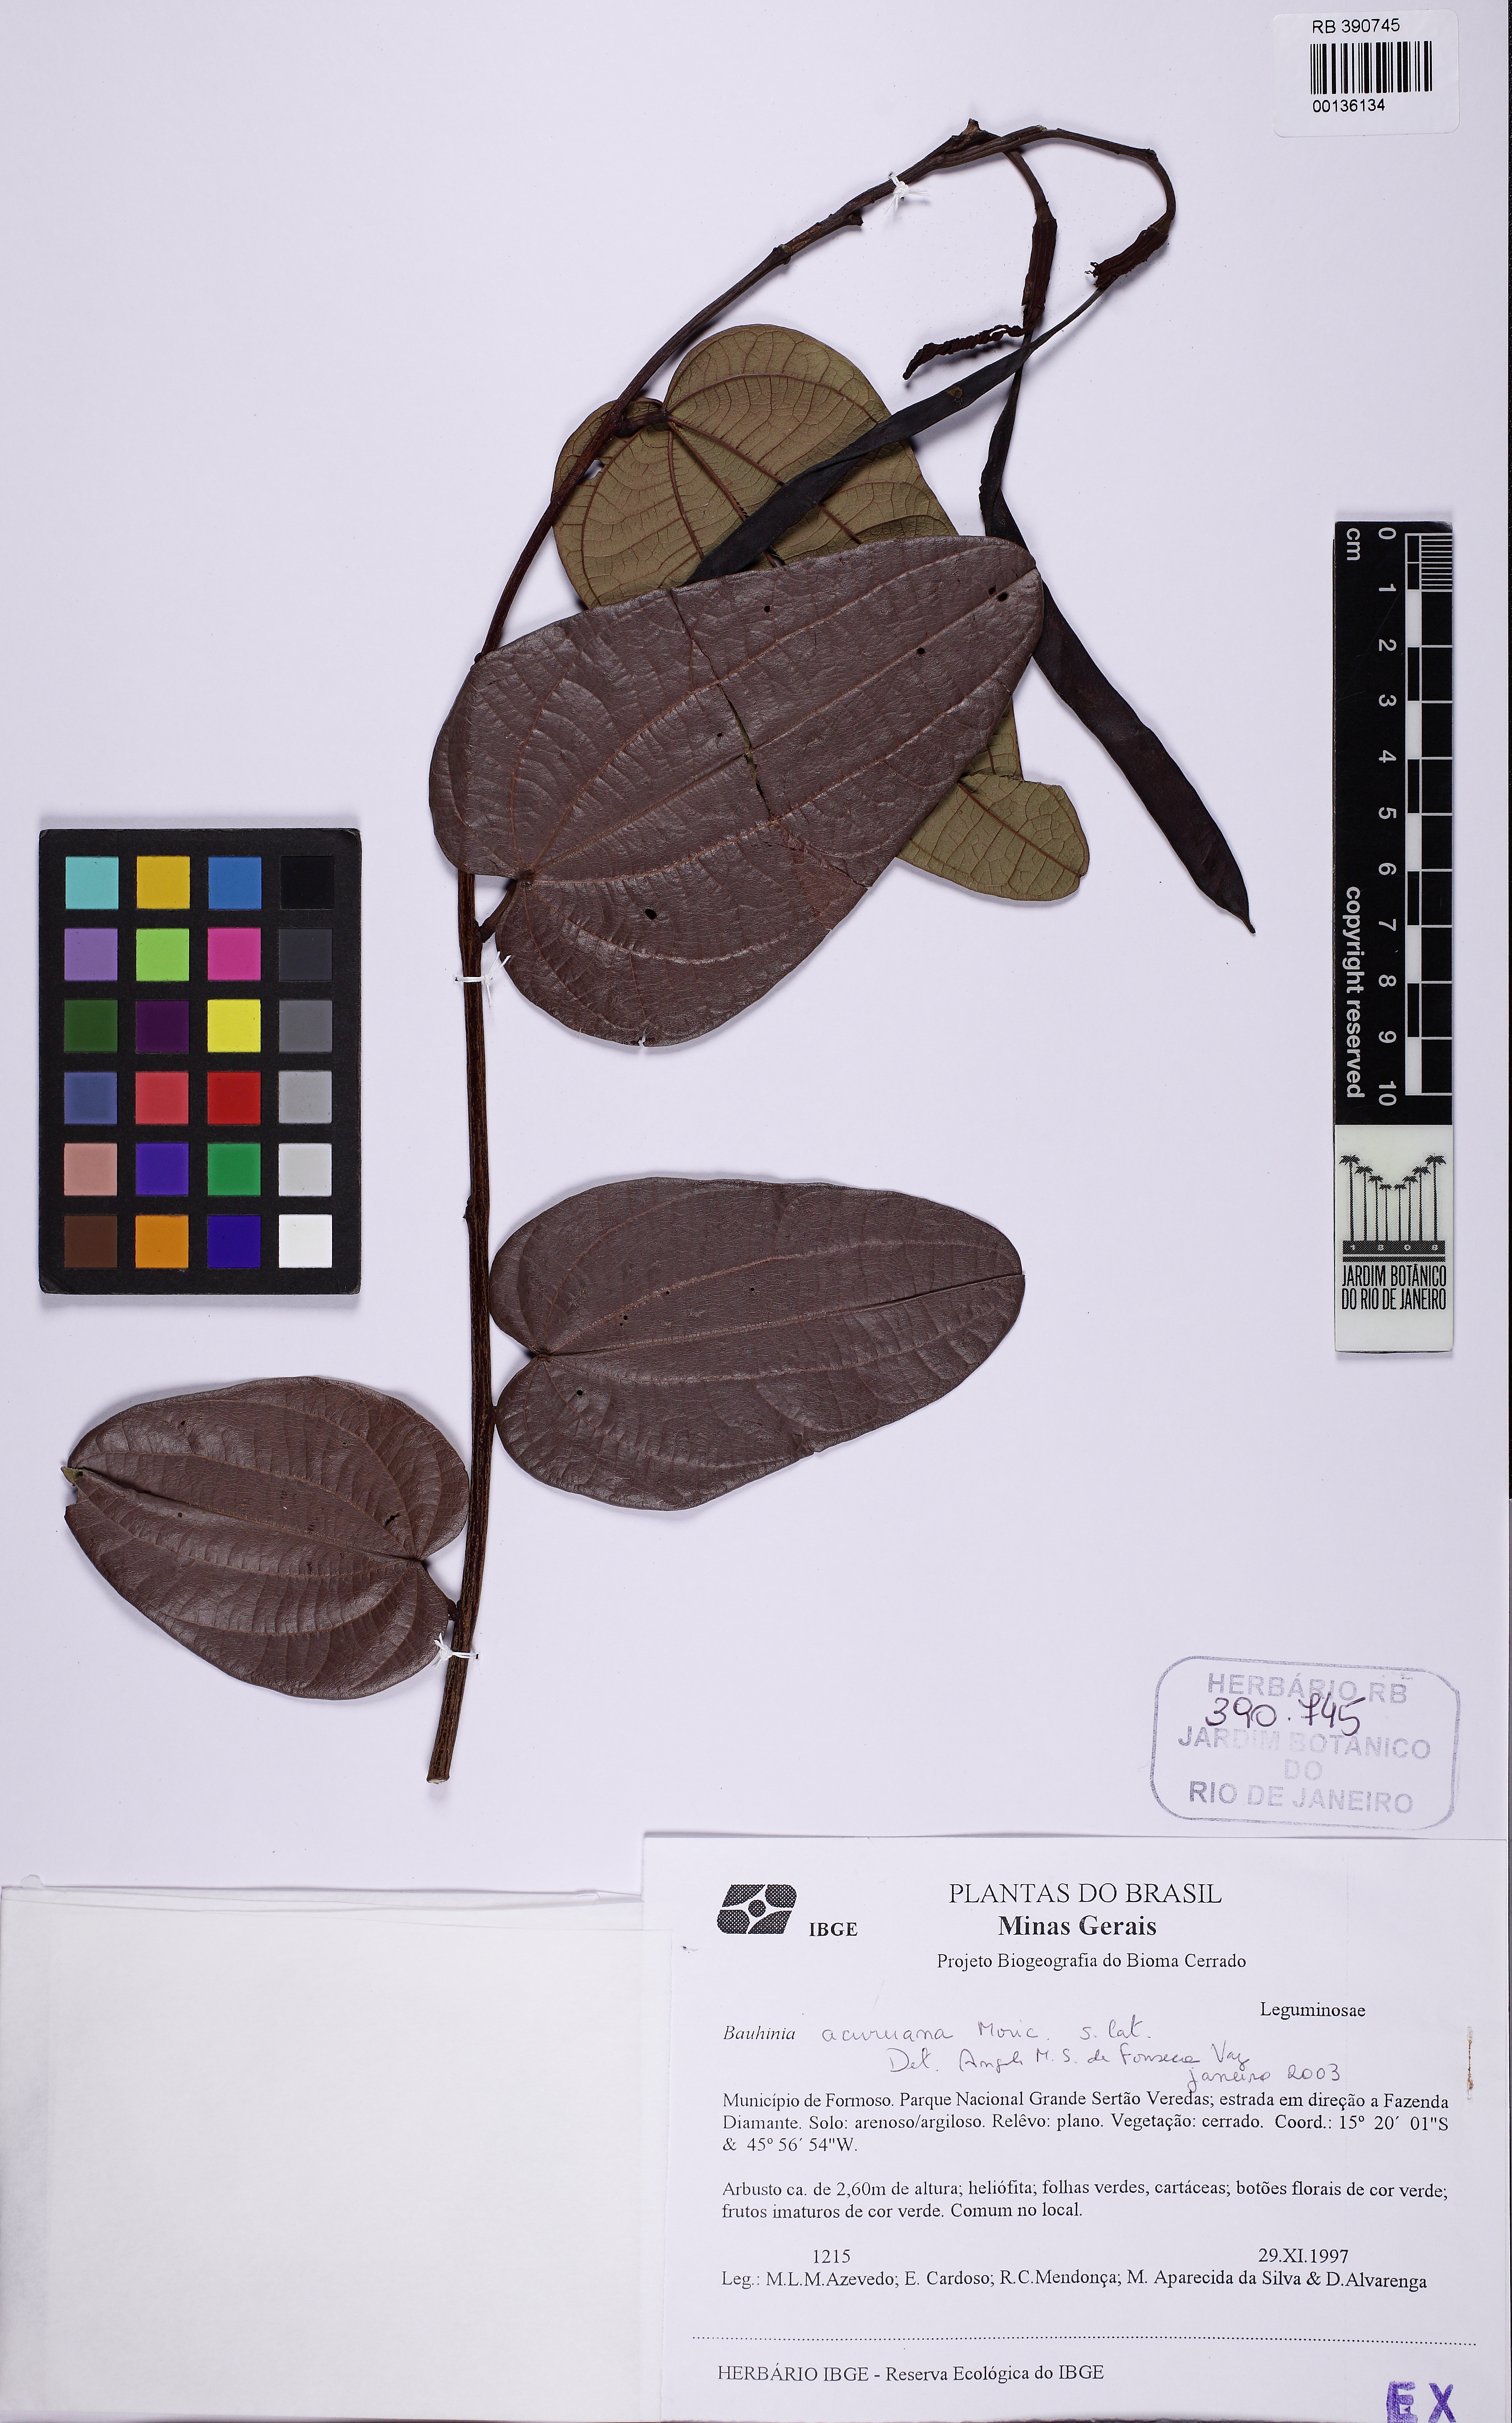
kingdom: Plantae
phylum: Tracheophyta
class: Magnoliopsida
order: Fabales
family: Fabaceae
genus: Bauhinia
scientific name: Bauhinia acuruana
